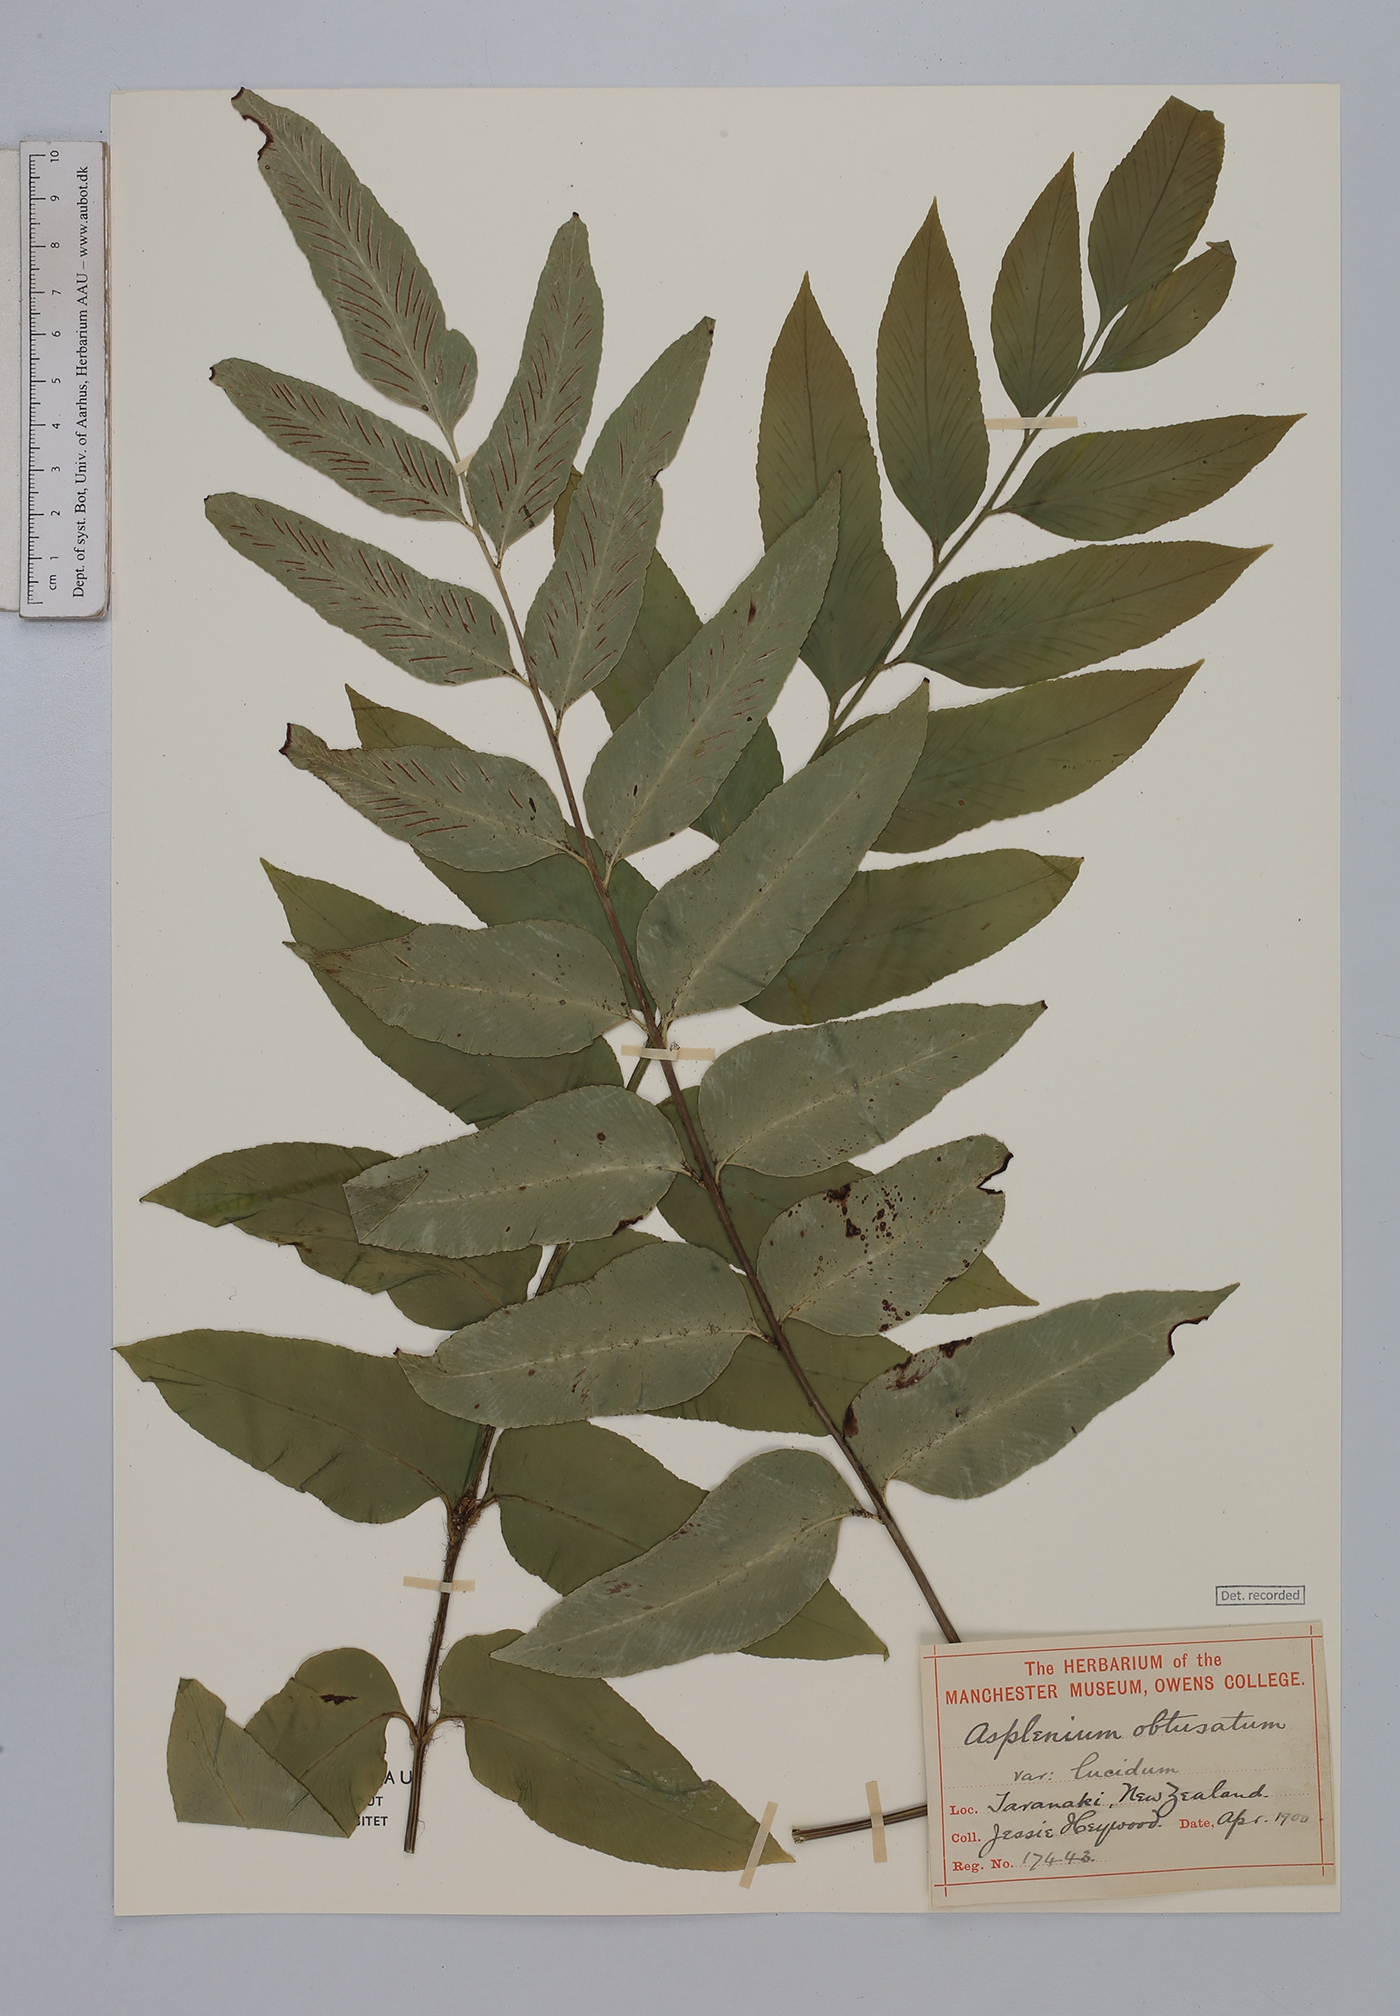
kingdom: Plantae
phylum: Tracheophyta
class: Polypodiopsida
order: Polypodiales
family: Aspleniaceae
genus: Asplenium
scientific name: Asplenium obtusatum
